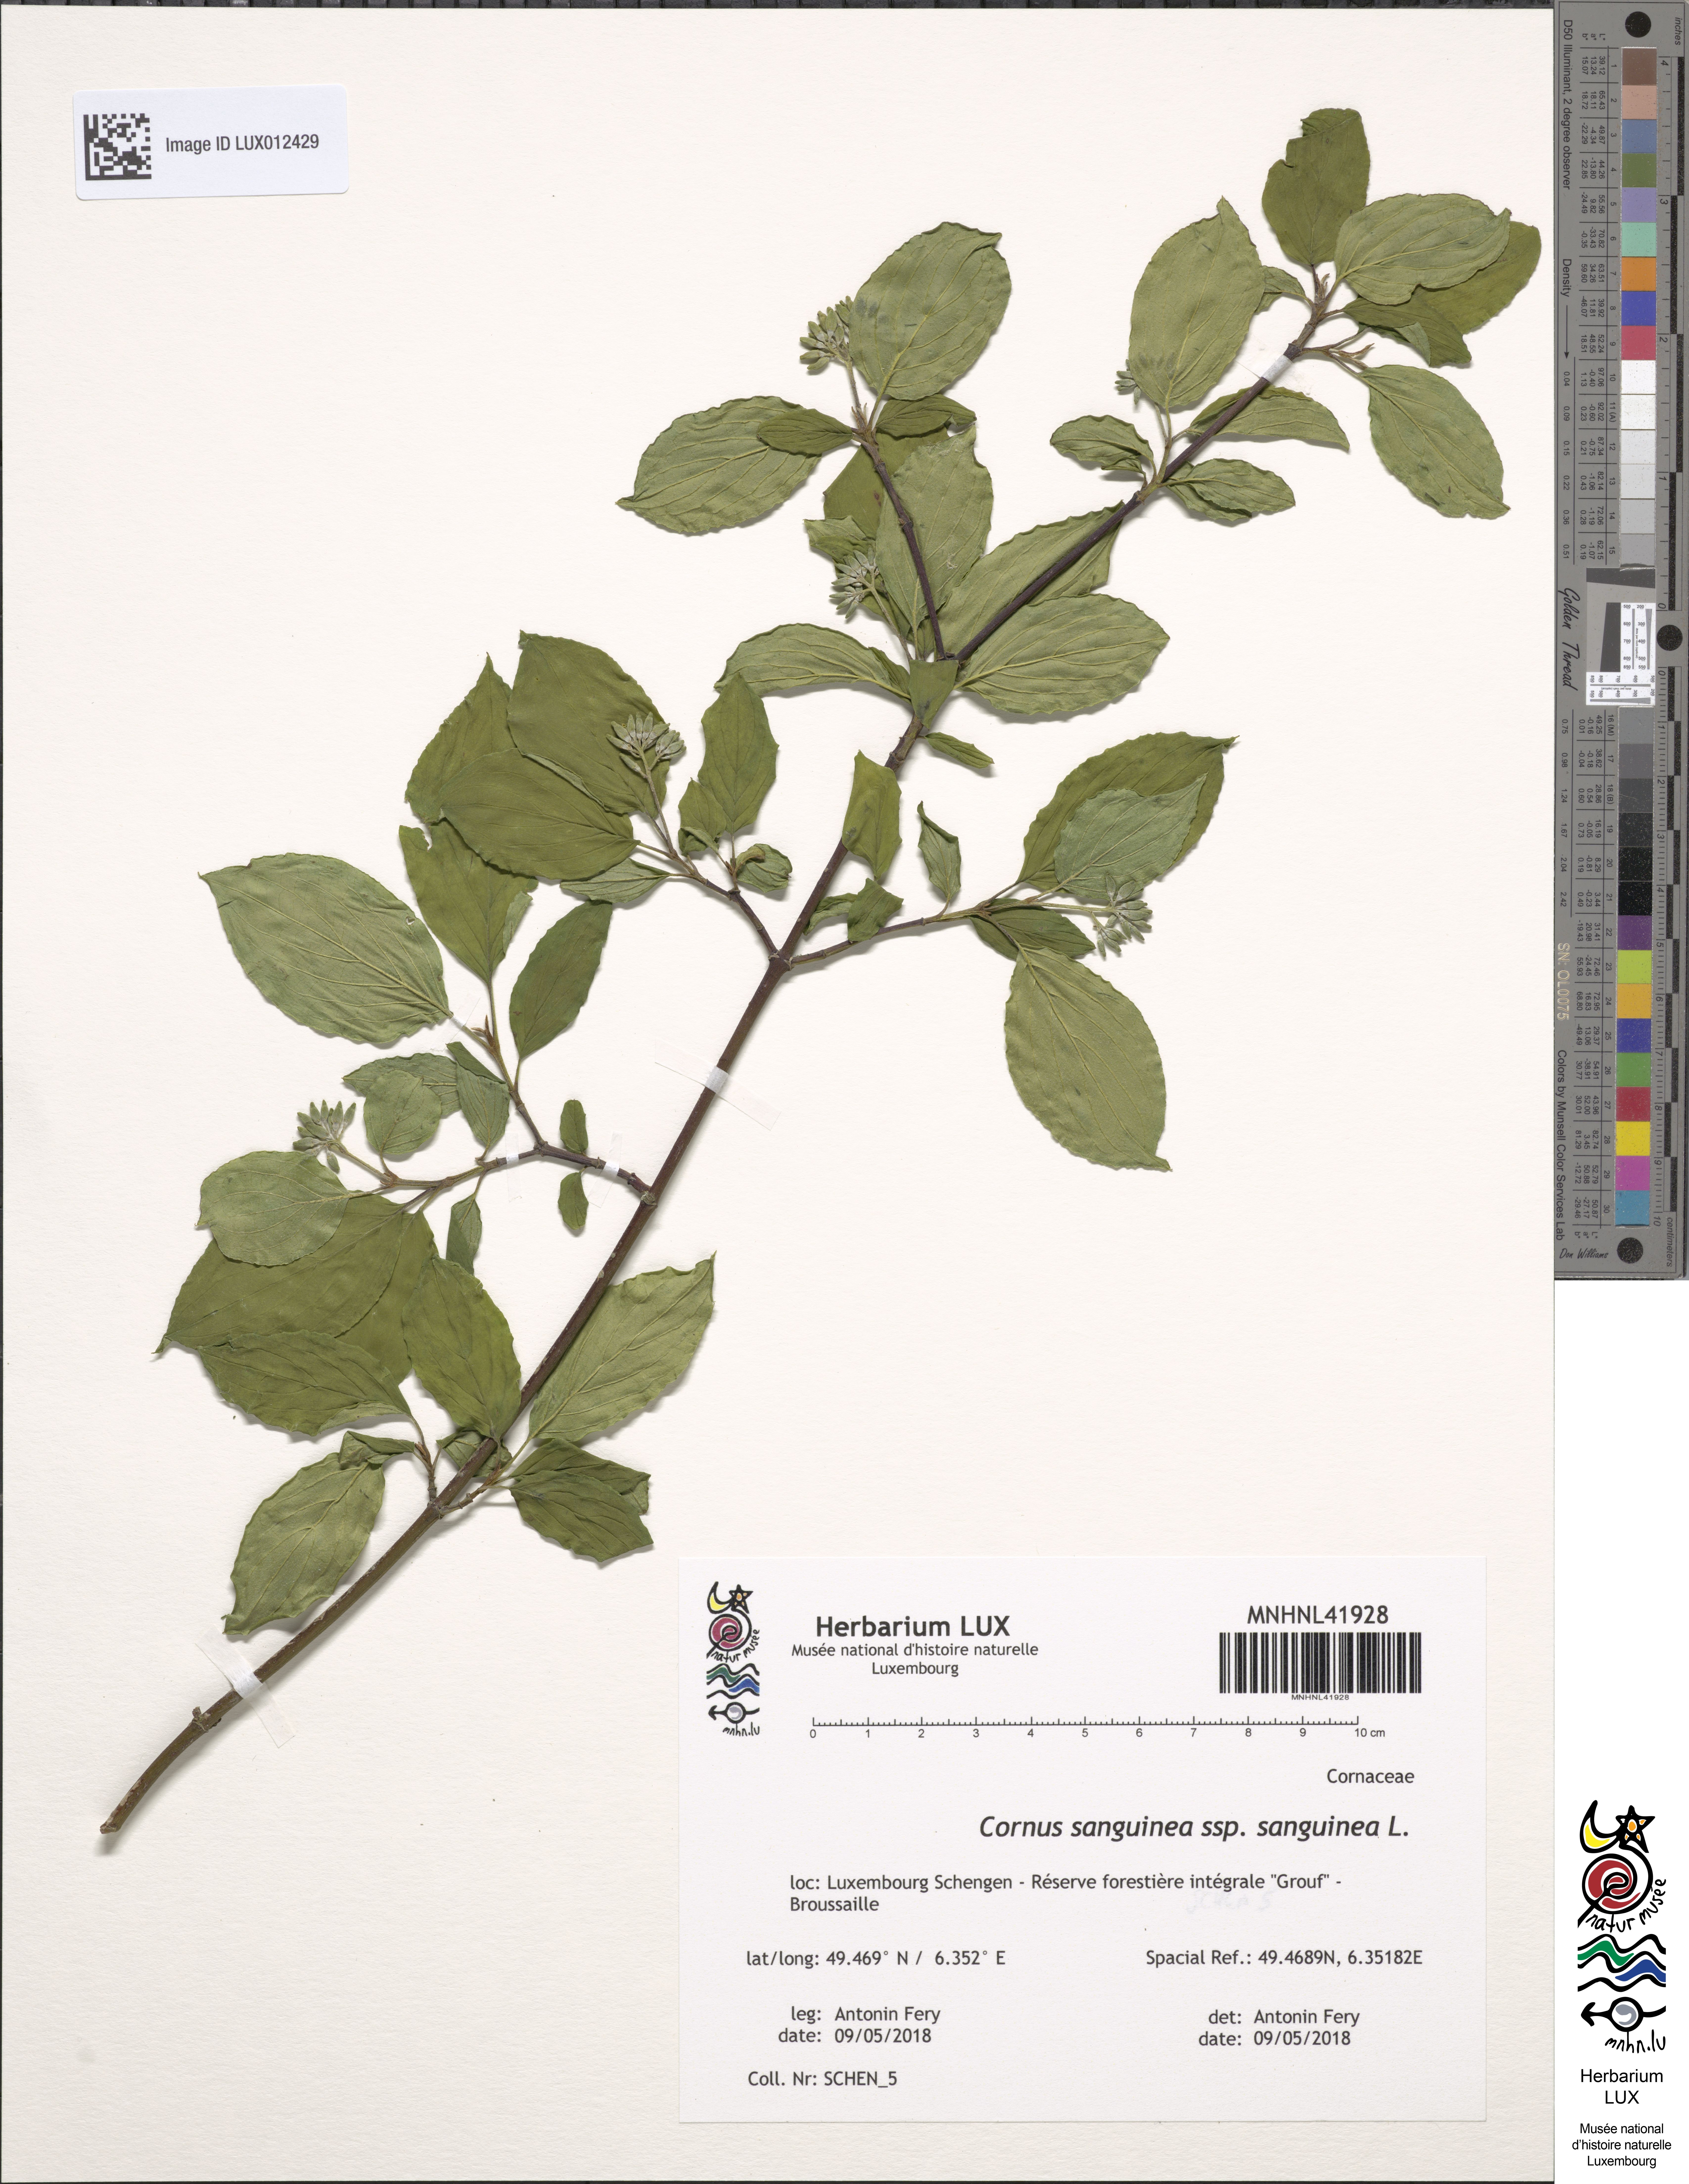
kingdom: Plantae
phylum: Tracheophyta
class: Magnoliopsida
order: Cornales
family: Cornaceae
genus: Cornus
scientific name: Cornus sanguinea
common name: Dogwood
